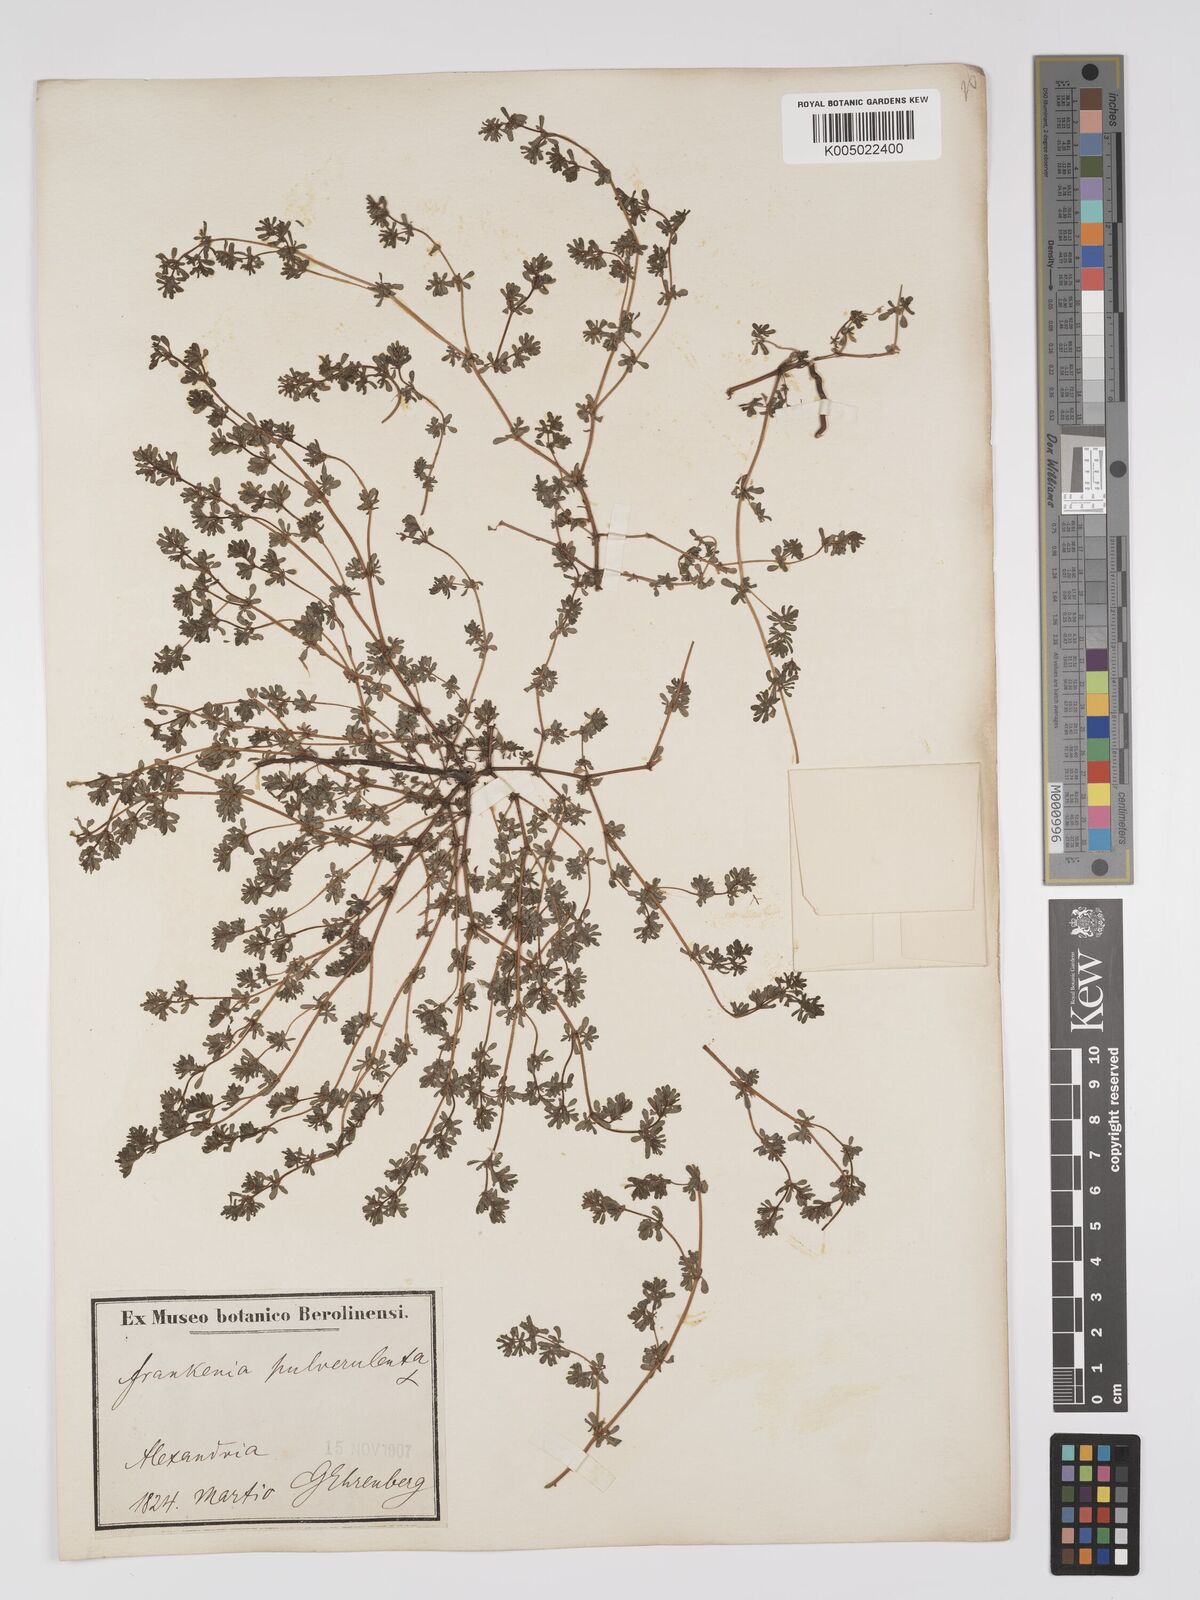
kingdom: Plantae
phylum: Tracheophyta
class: Magnoliopsida
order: Caryophyllales
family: Frankeniaceae
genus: Frankenia
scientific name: Frankenia pulverulenta
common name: European seaheath
